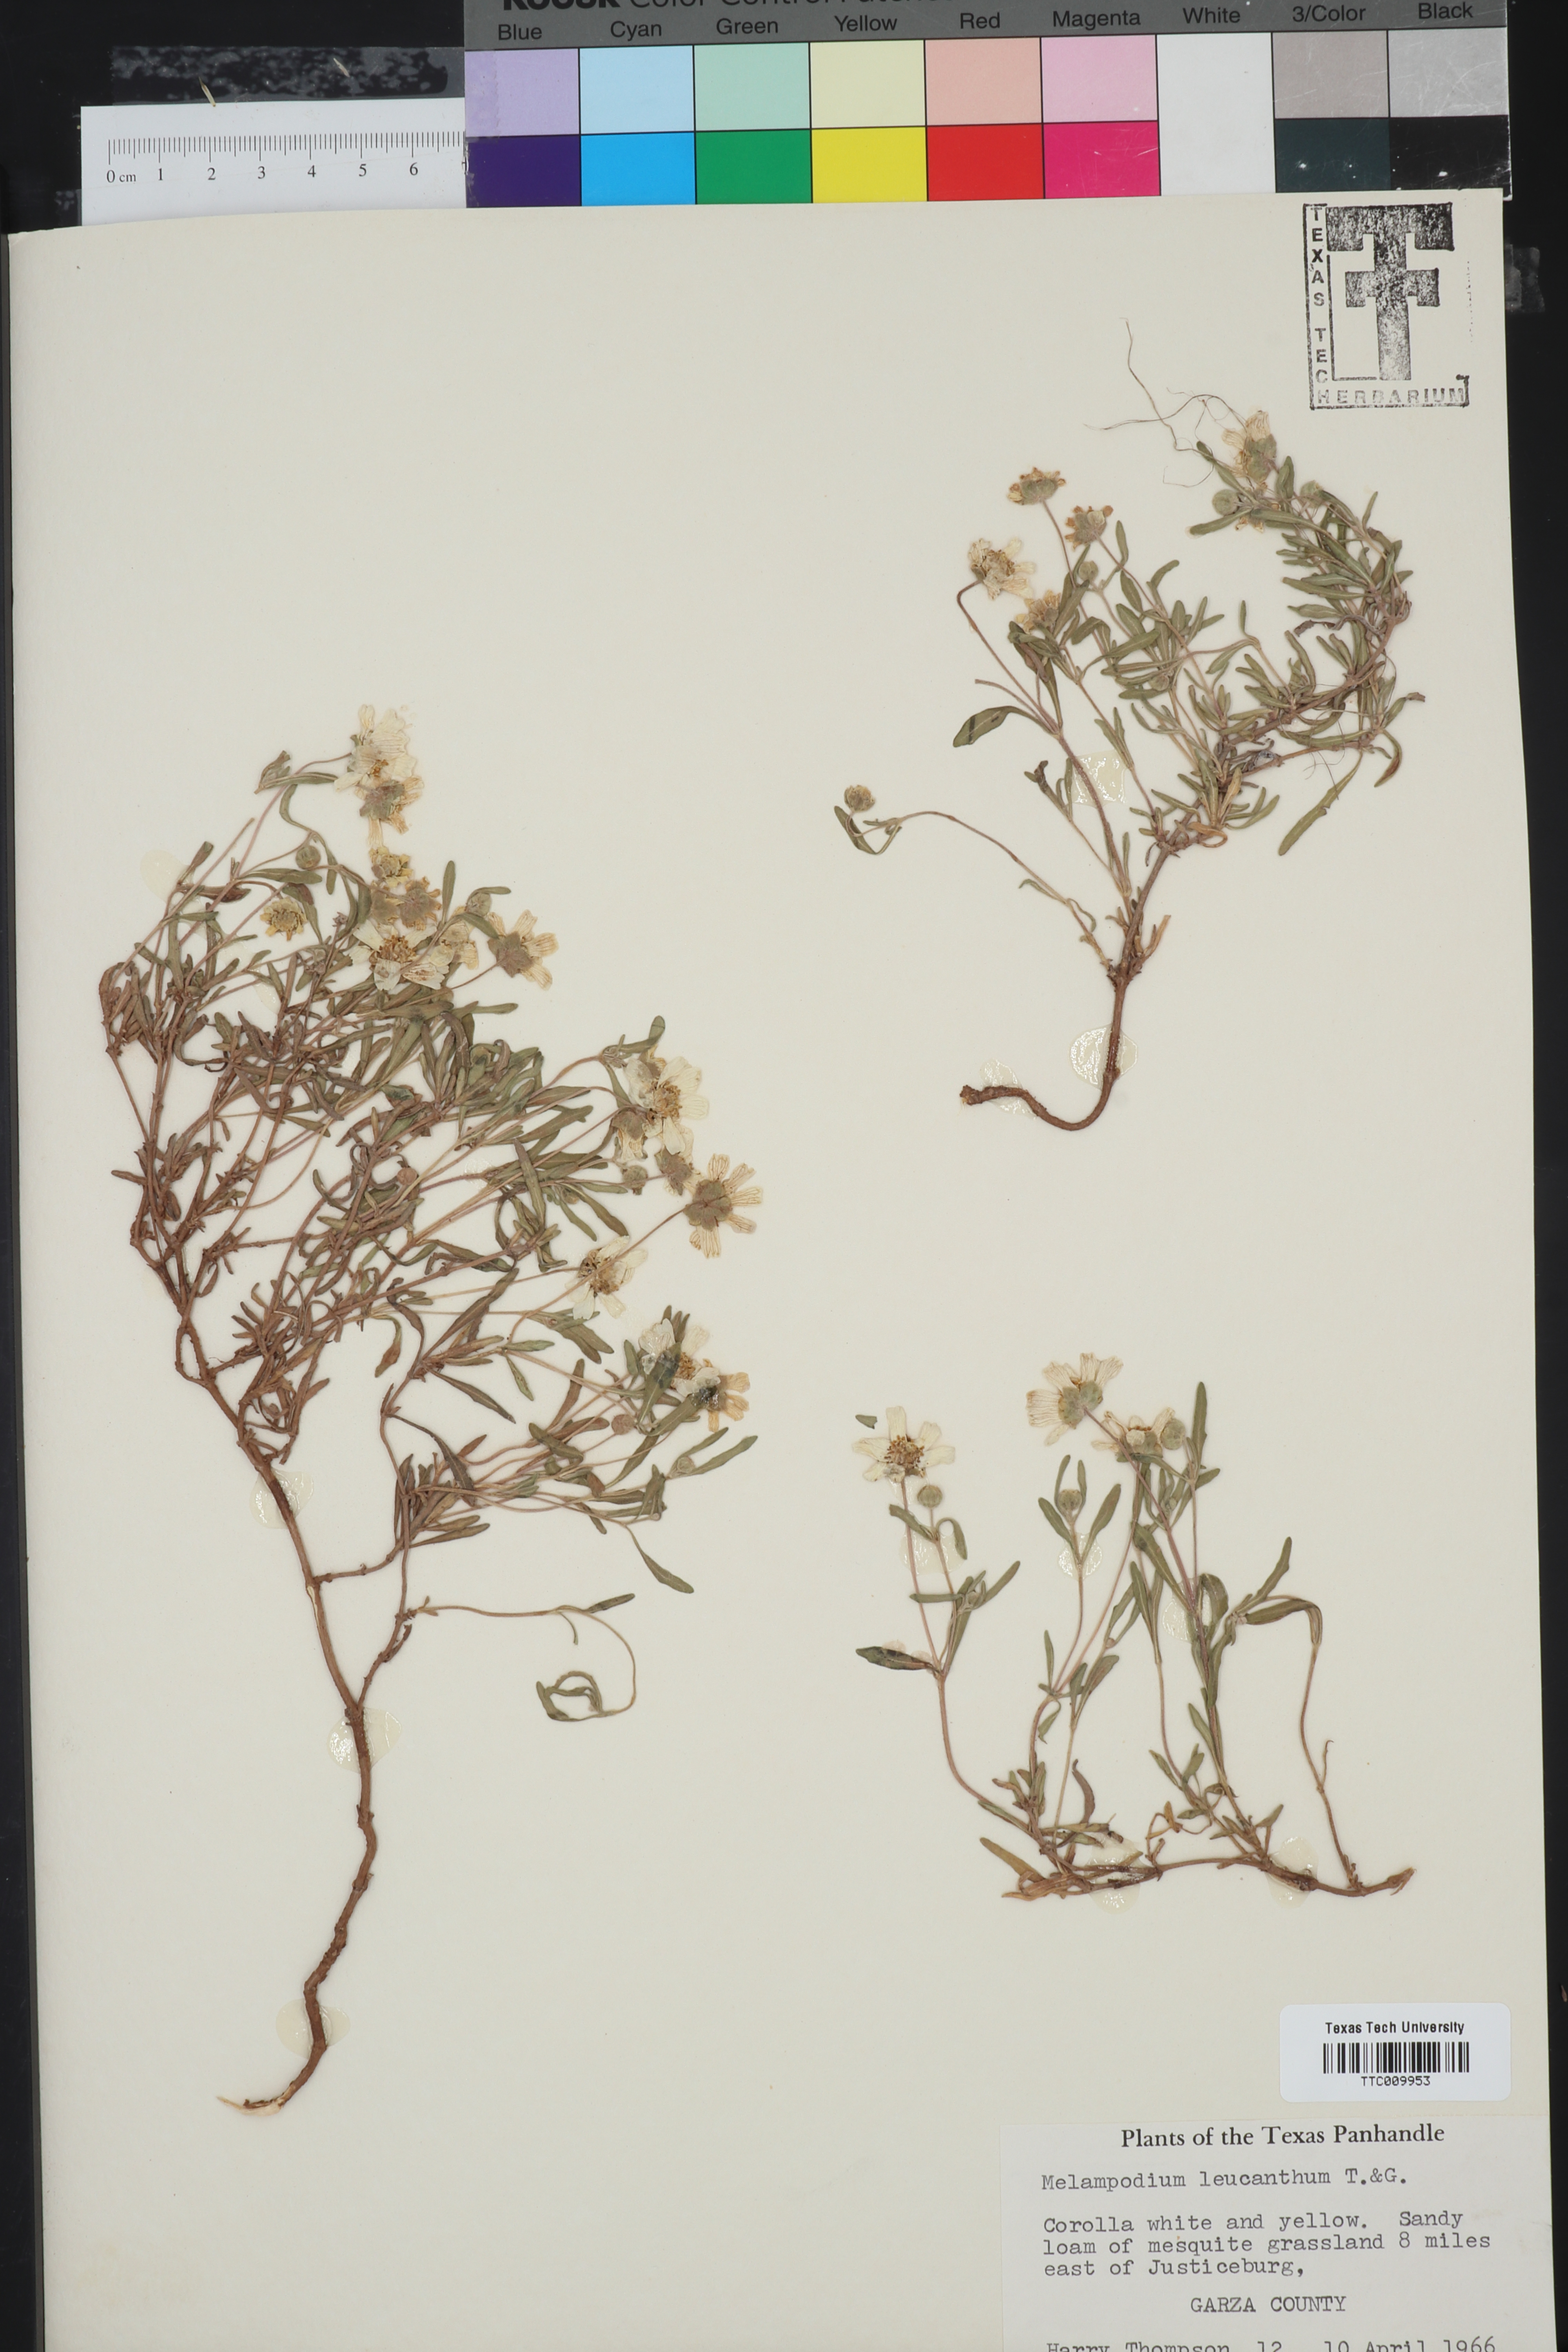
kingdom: Plantae
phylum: Tracheophyta
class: Magnoliopsida
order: Asterales
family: Asteraceae
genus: Melampodium
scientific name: Melampodium leucanthum
